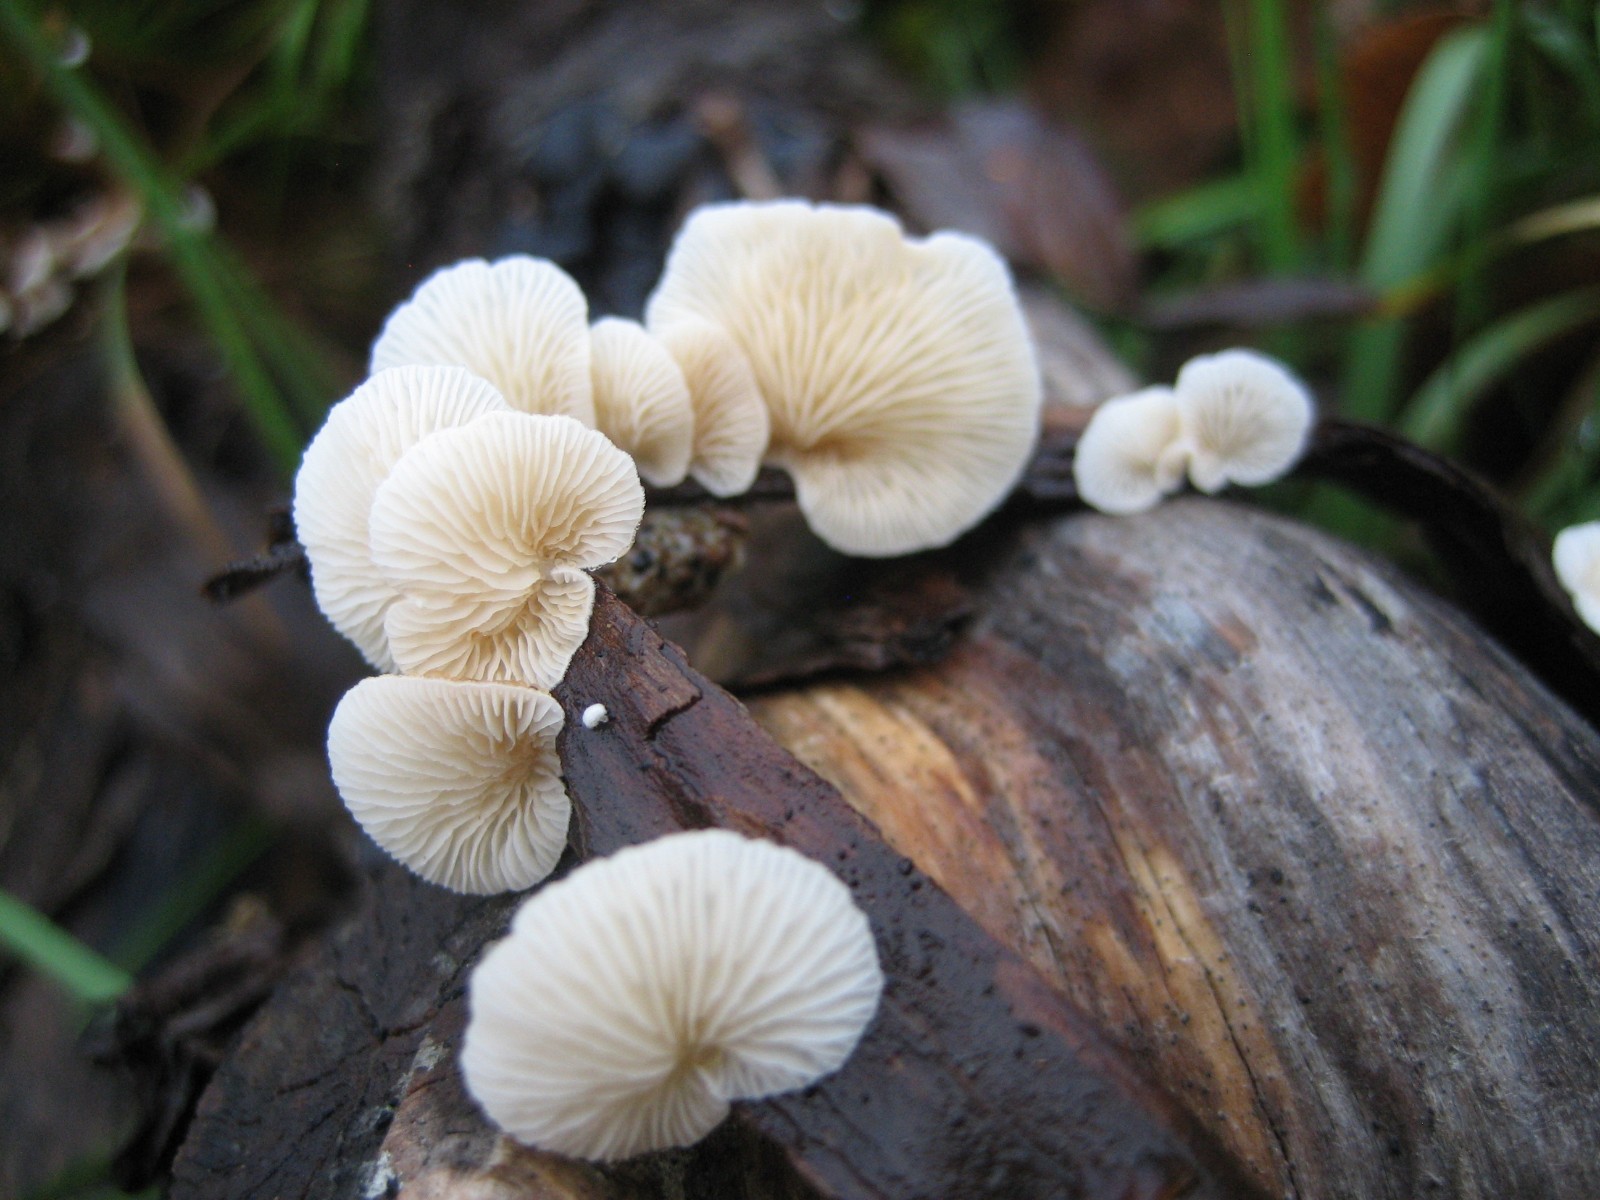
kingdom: Fungi
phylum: Basidiomycota
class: Agaricomycetes
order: Agaricales
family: Crepidotaceae
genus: Crepidotus
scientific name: Crepidotus
